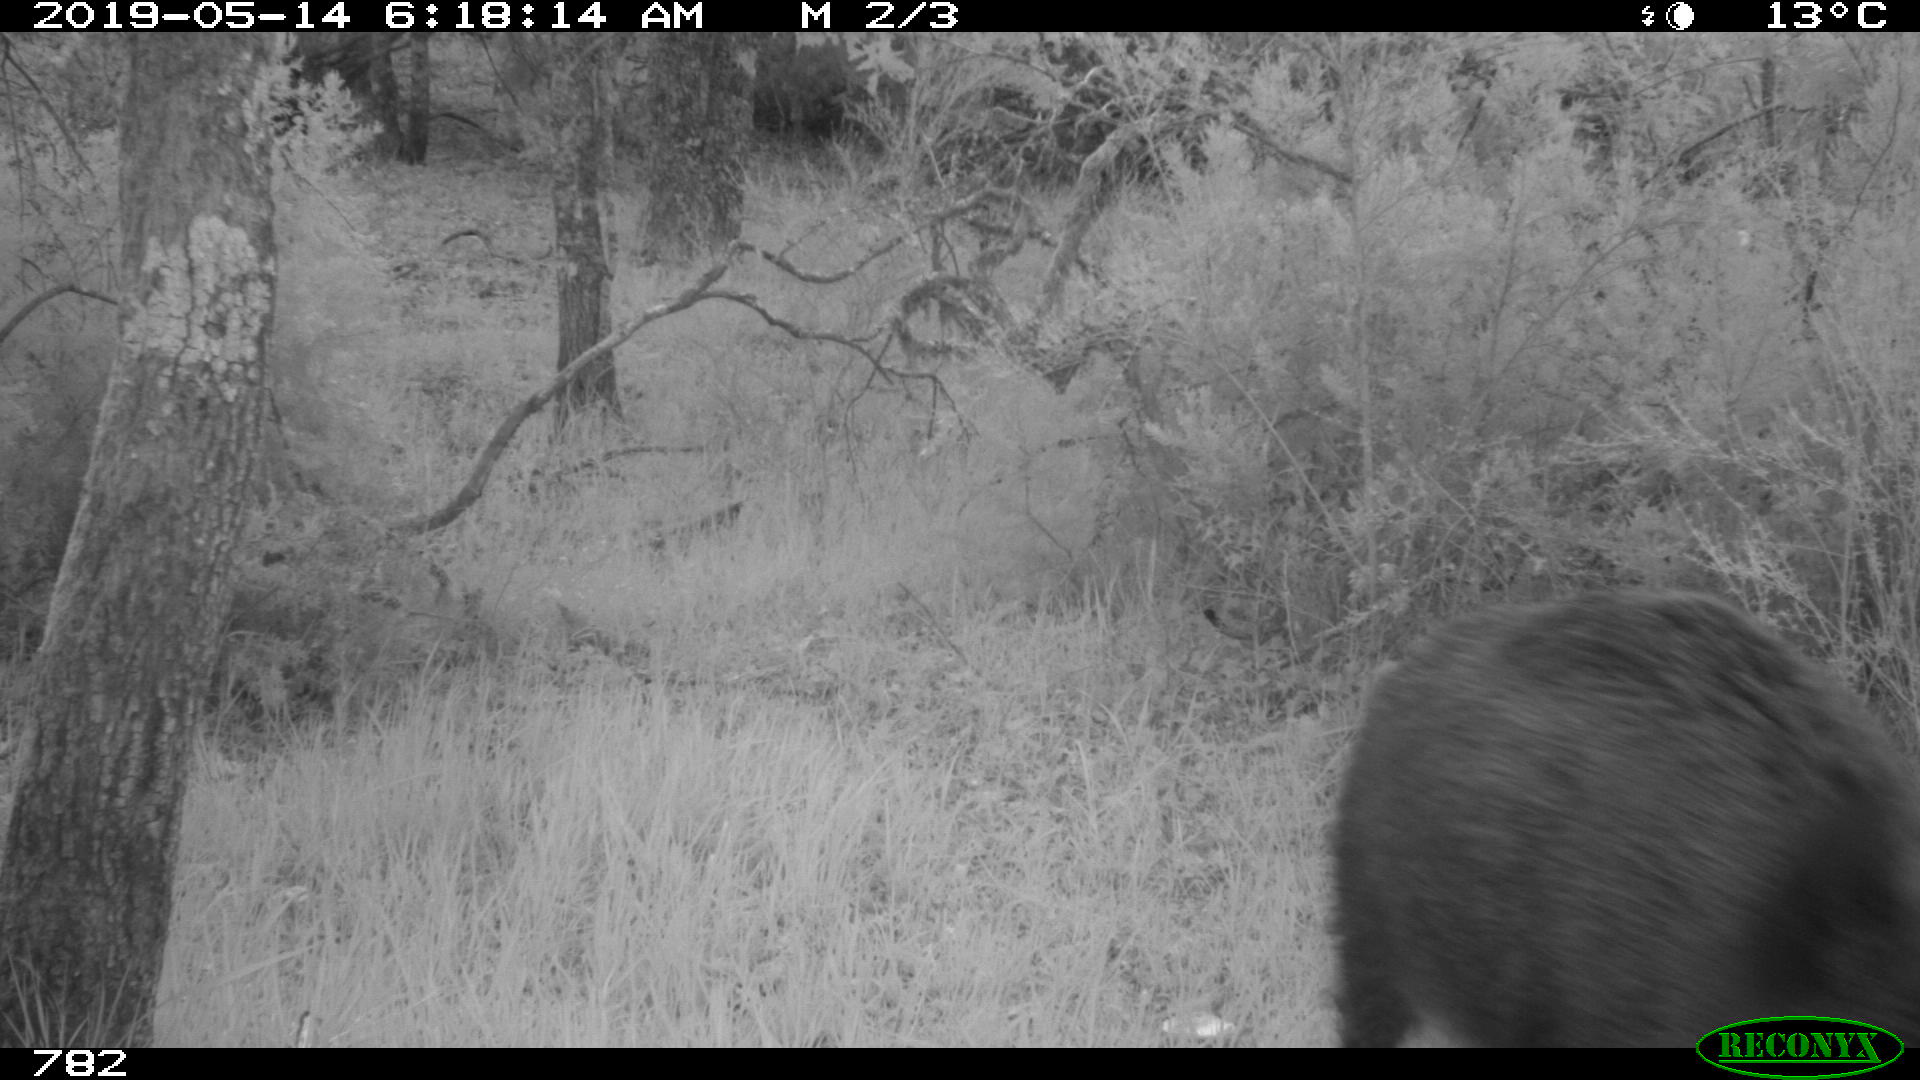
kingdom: Animalia
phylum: Chordata
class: Mammalia
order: Artiodactyla
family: Suidae
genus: Sus
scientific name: Sus scrofa
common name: Wild boar
